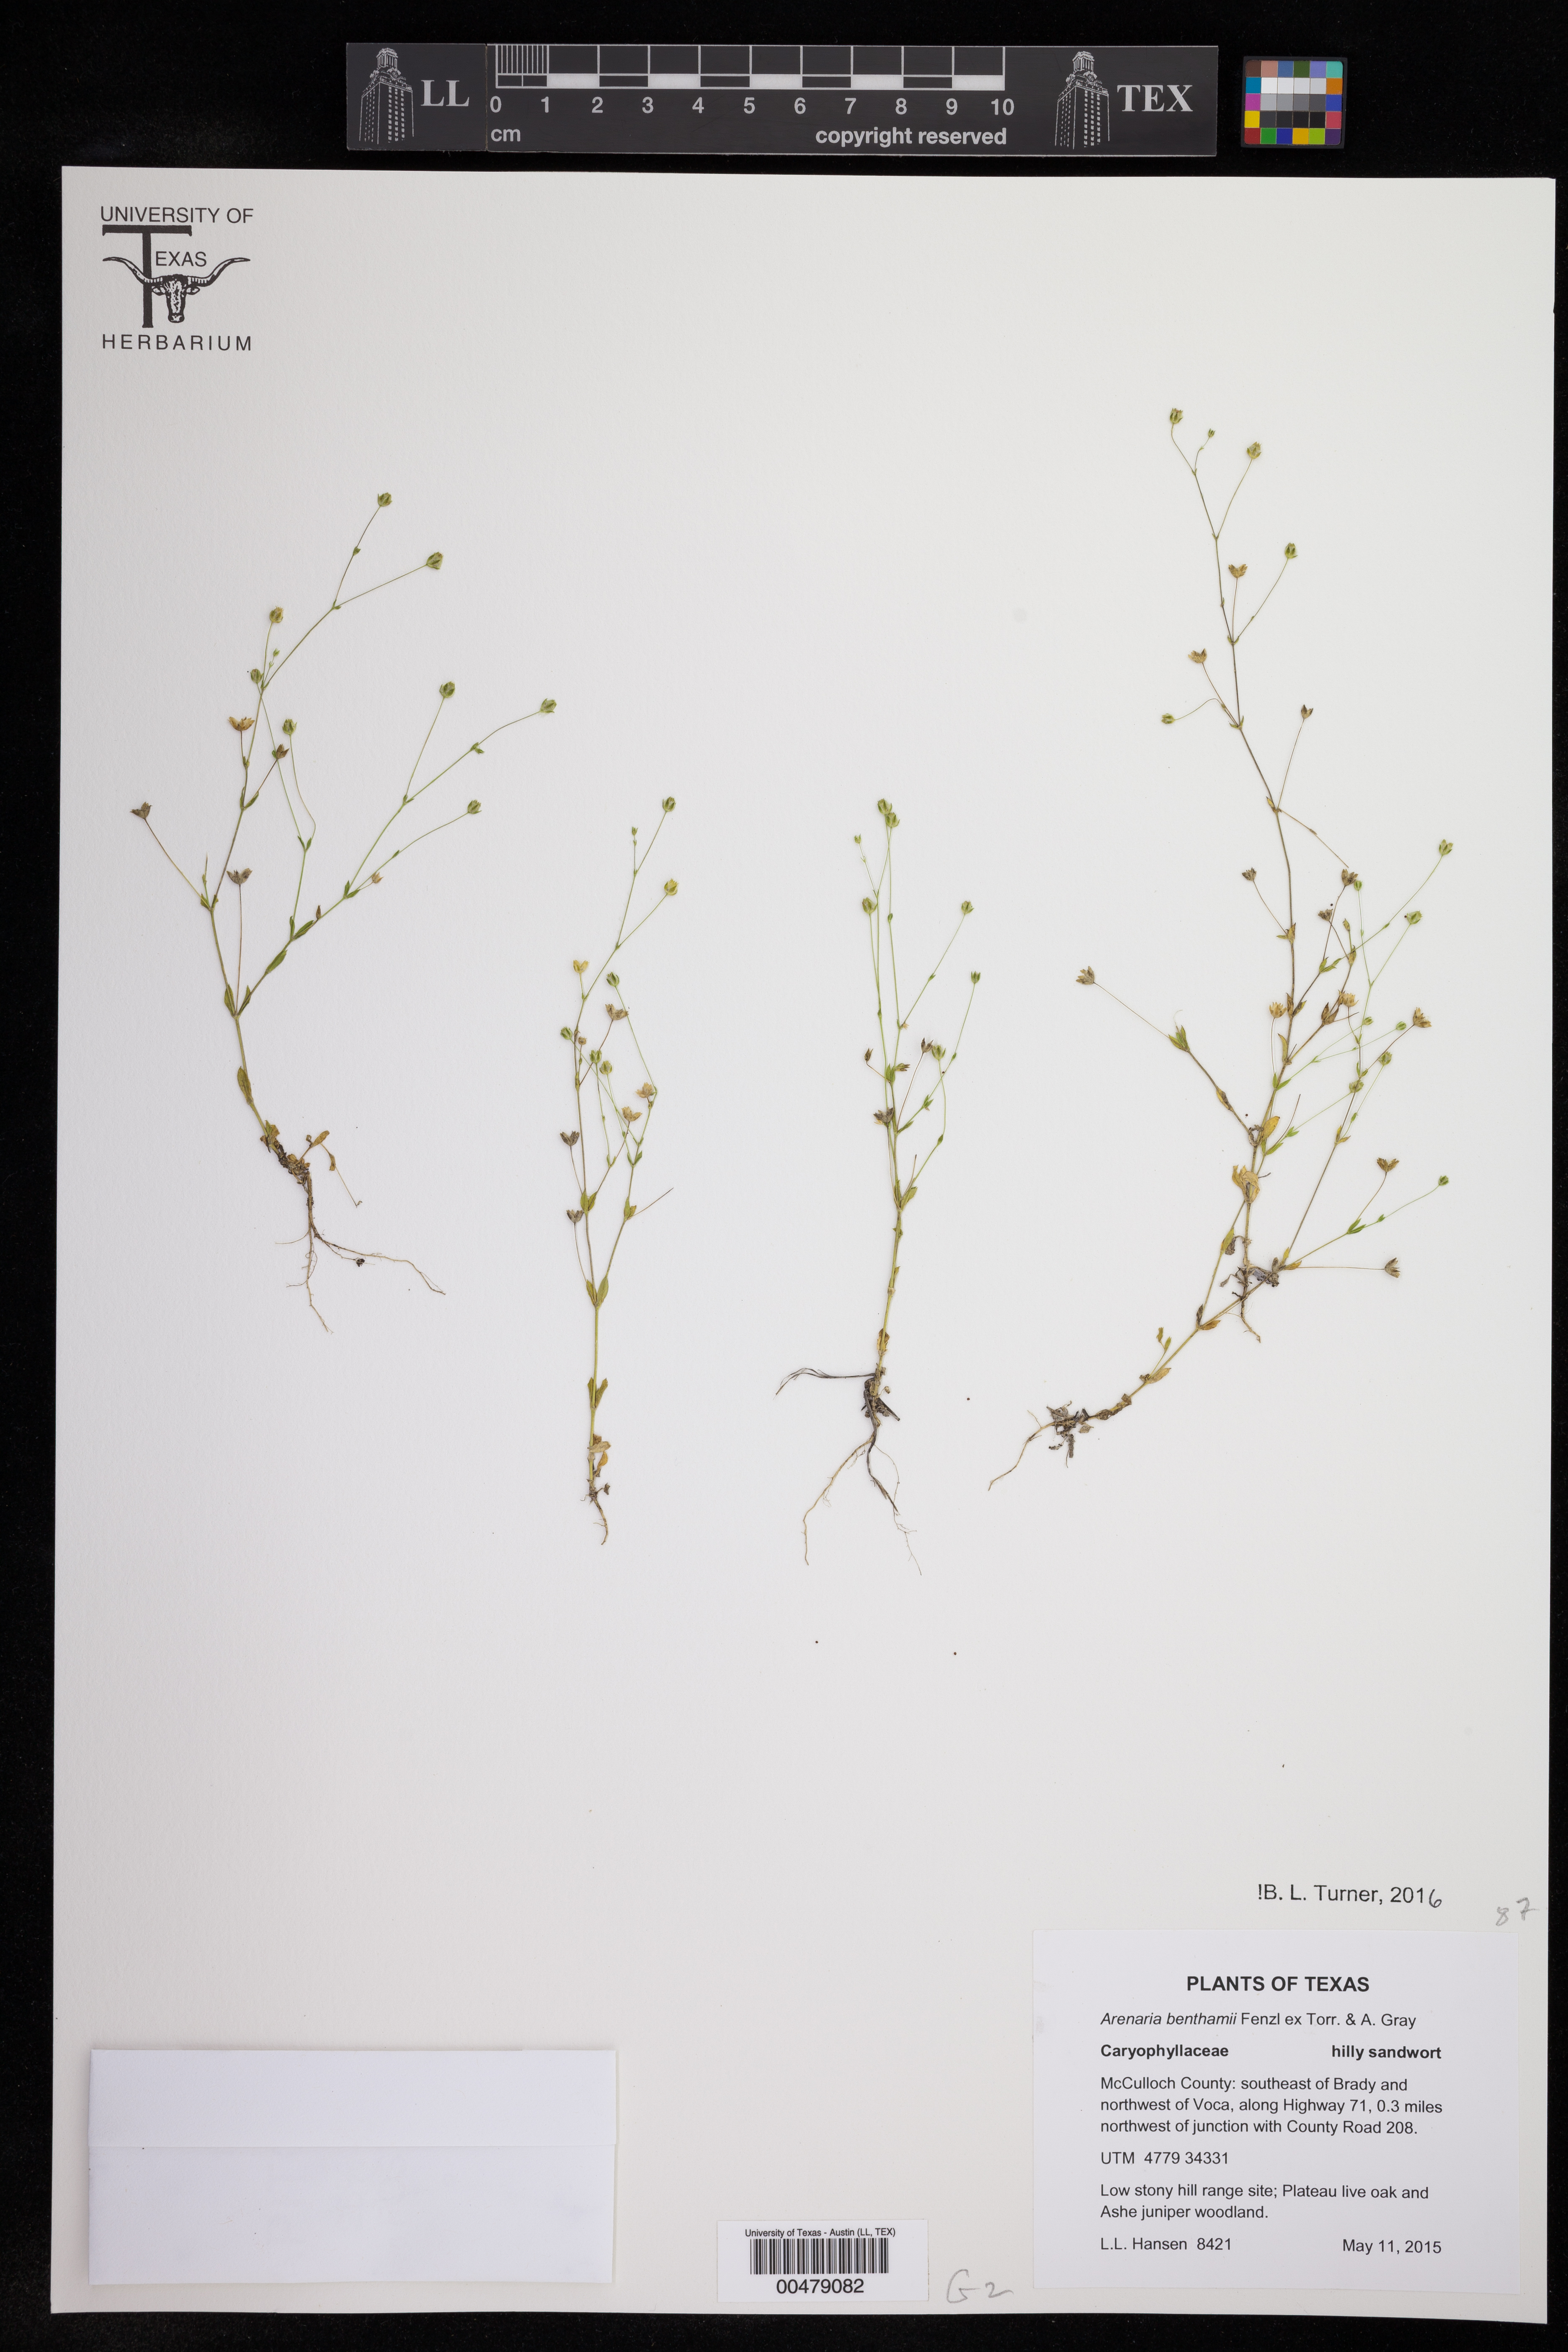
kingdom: Plantae
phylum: Tracheophyta
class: Magnoliopsida
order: Caryophyllales
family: Caryophyllaceae
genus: Arenaria
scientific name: Arenaria benthamii
